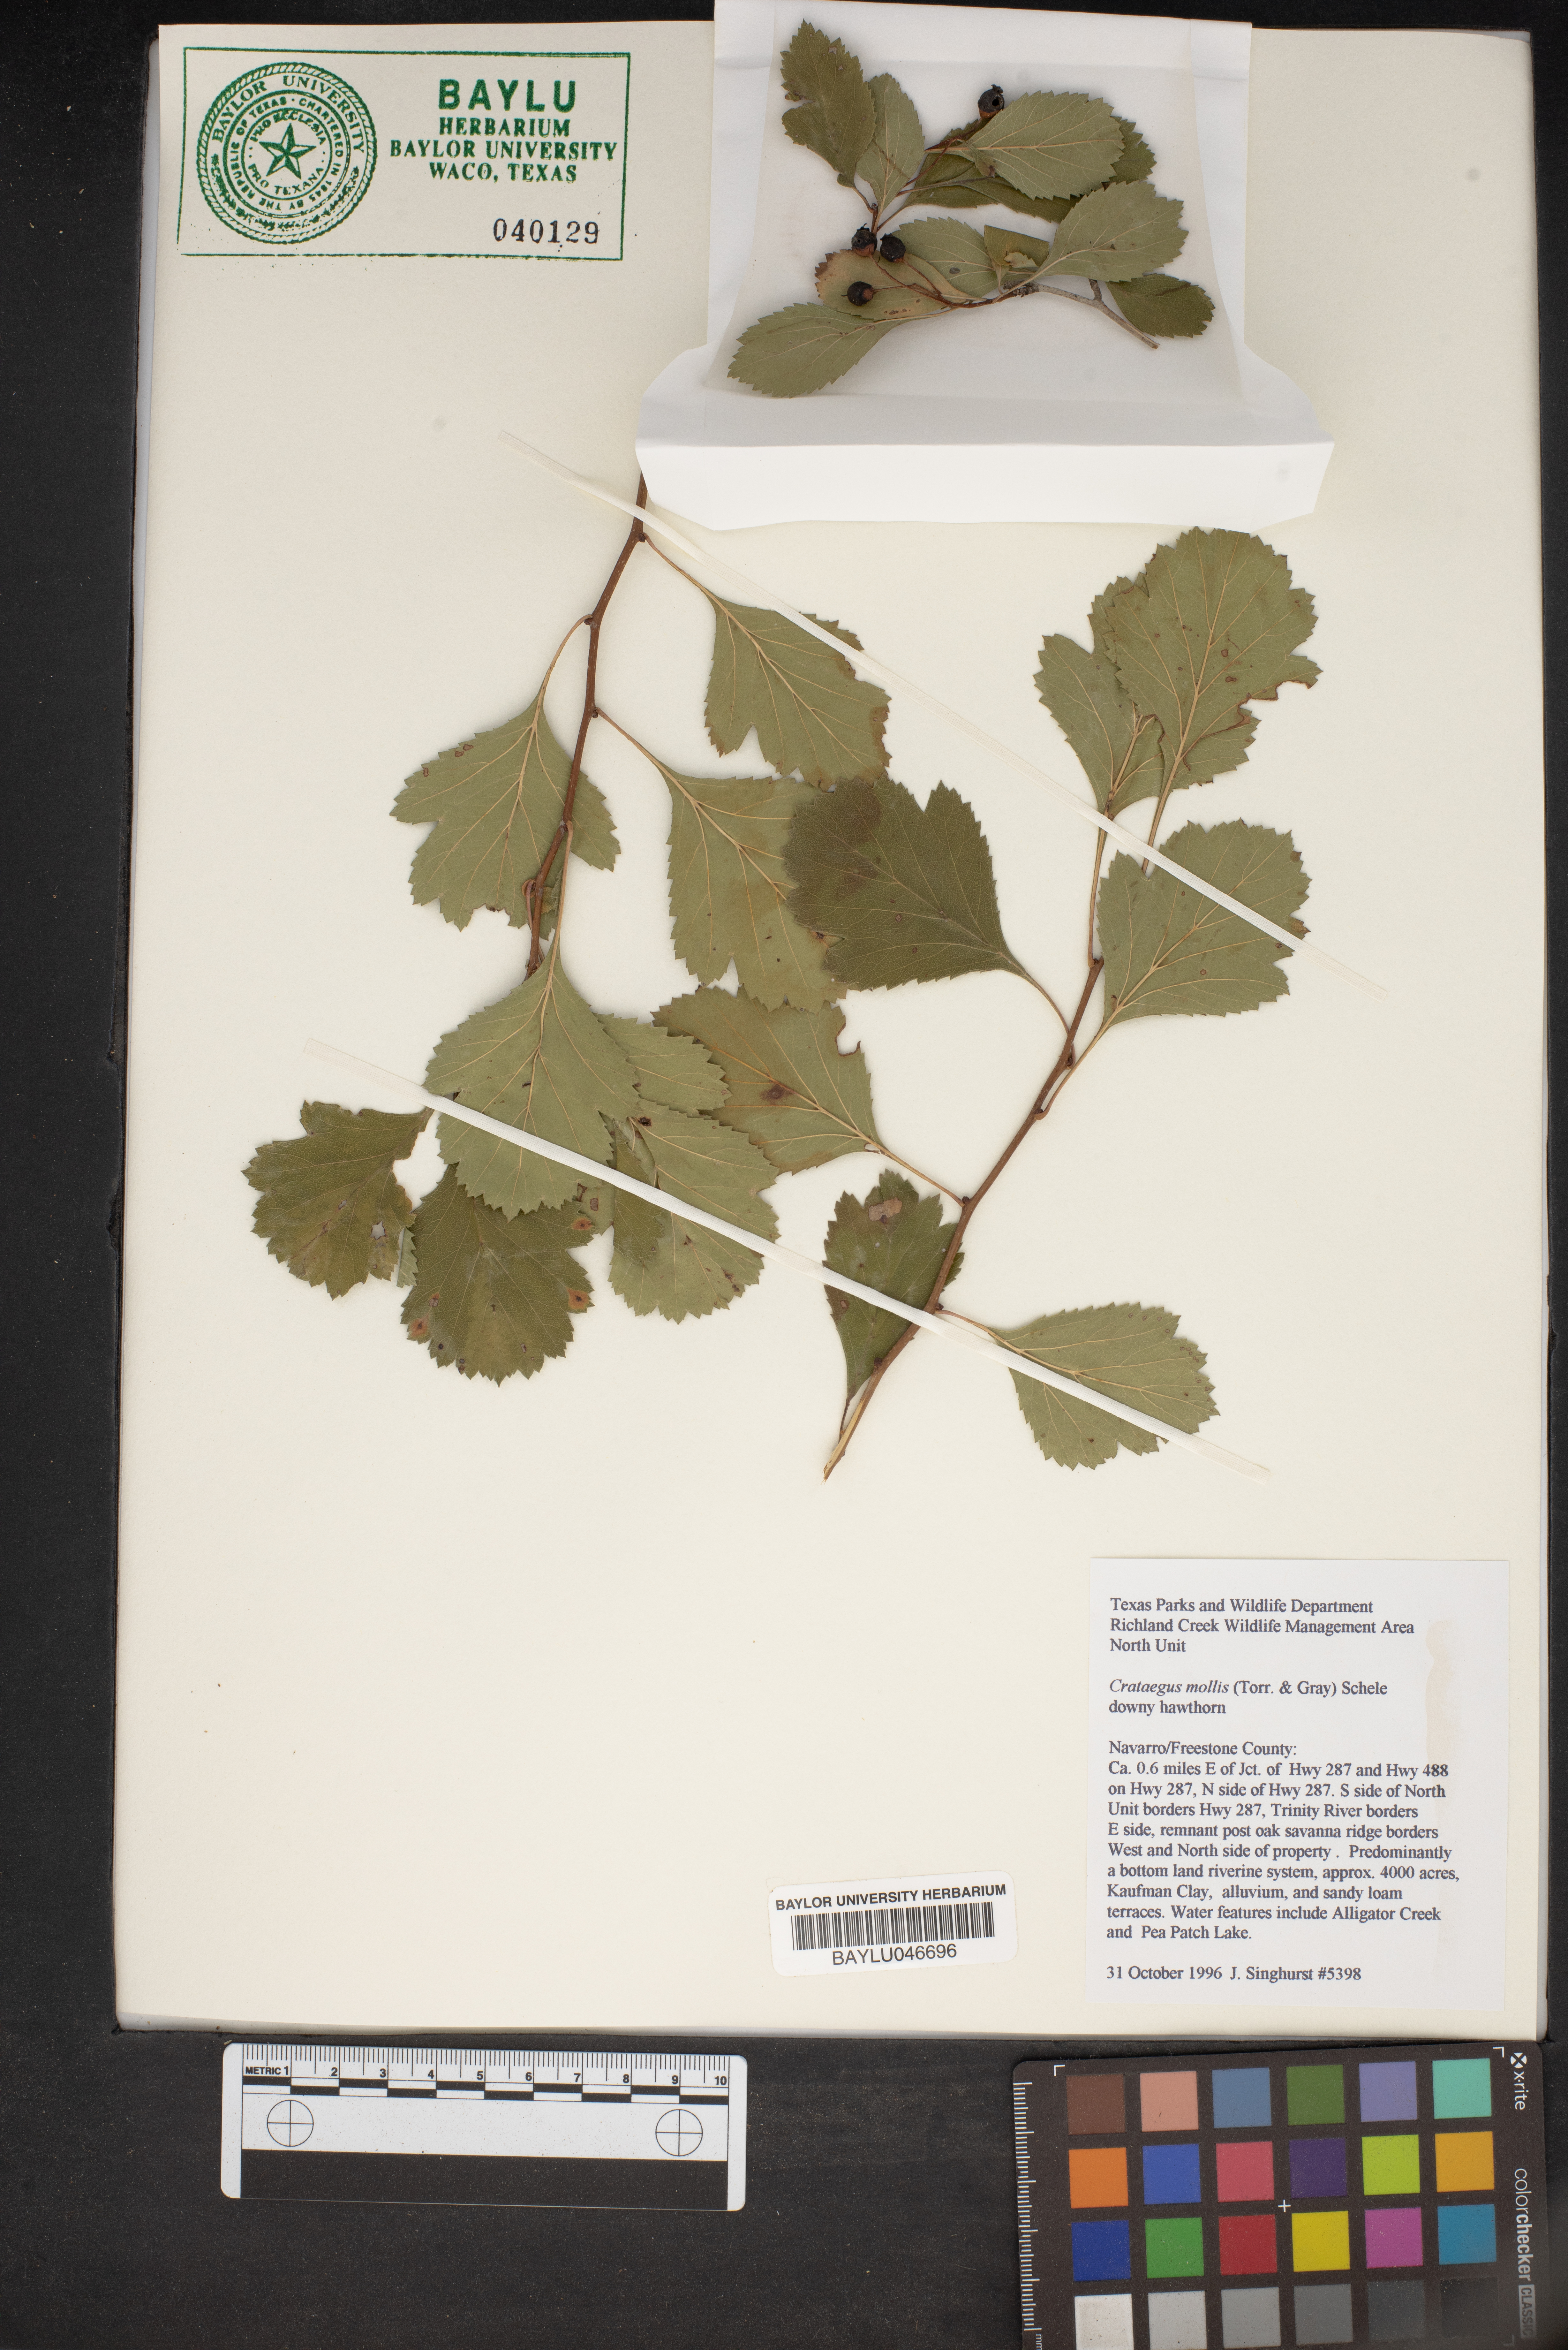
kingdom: Plantae
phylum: Tracheophyta
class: Magnoliopsida
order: Rosales
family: Rosaceae
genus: Crataegus
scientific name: Crataegus mollis
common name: Downy hawthorn
